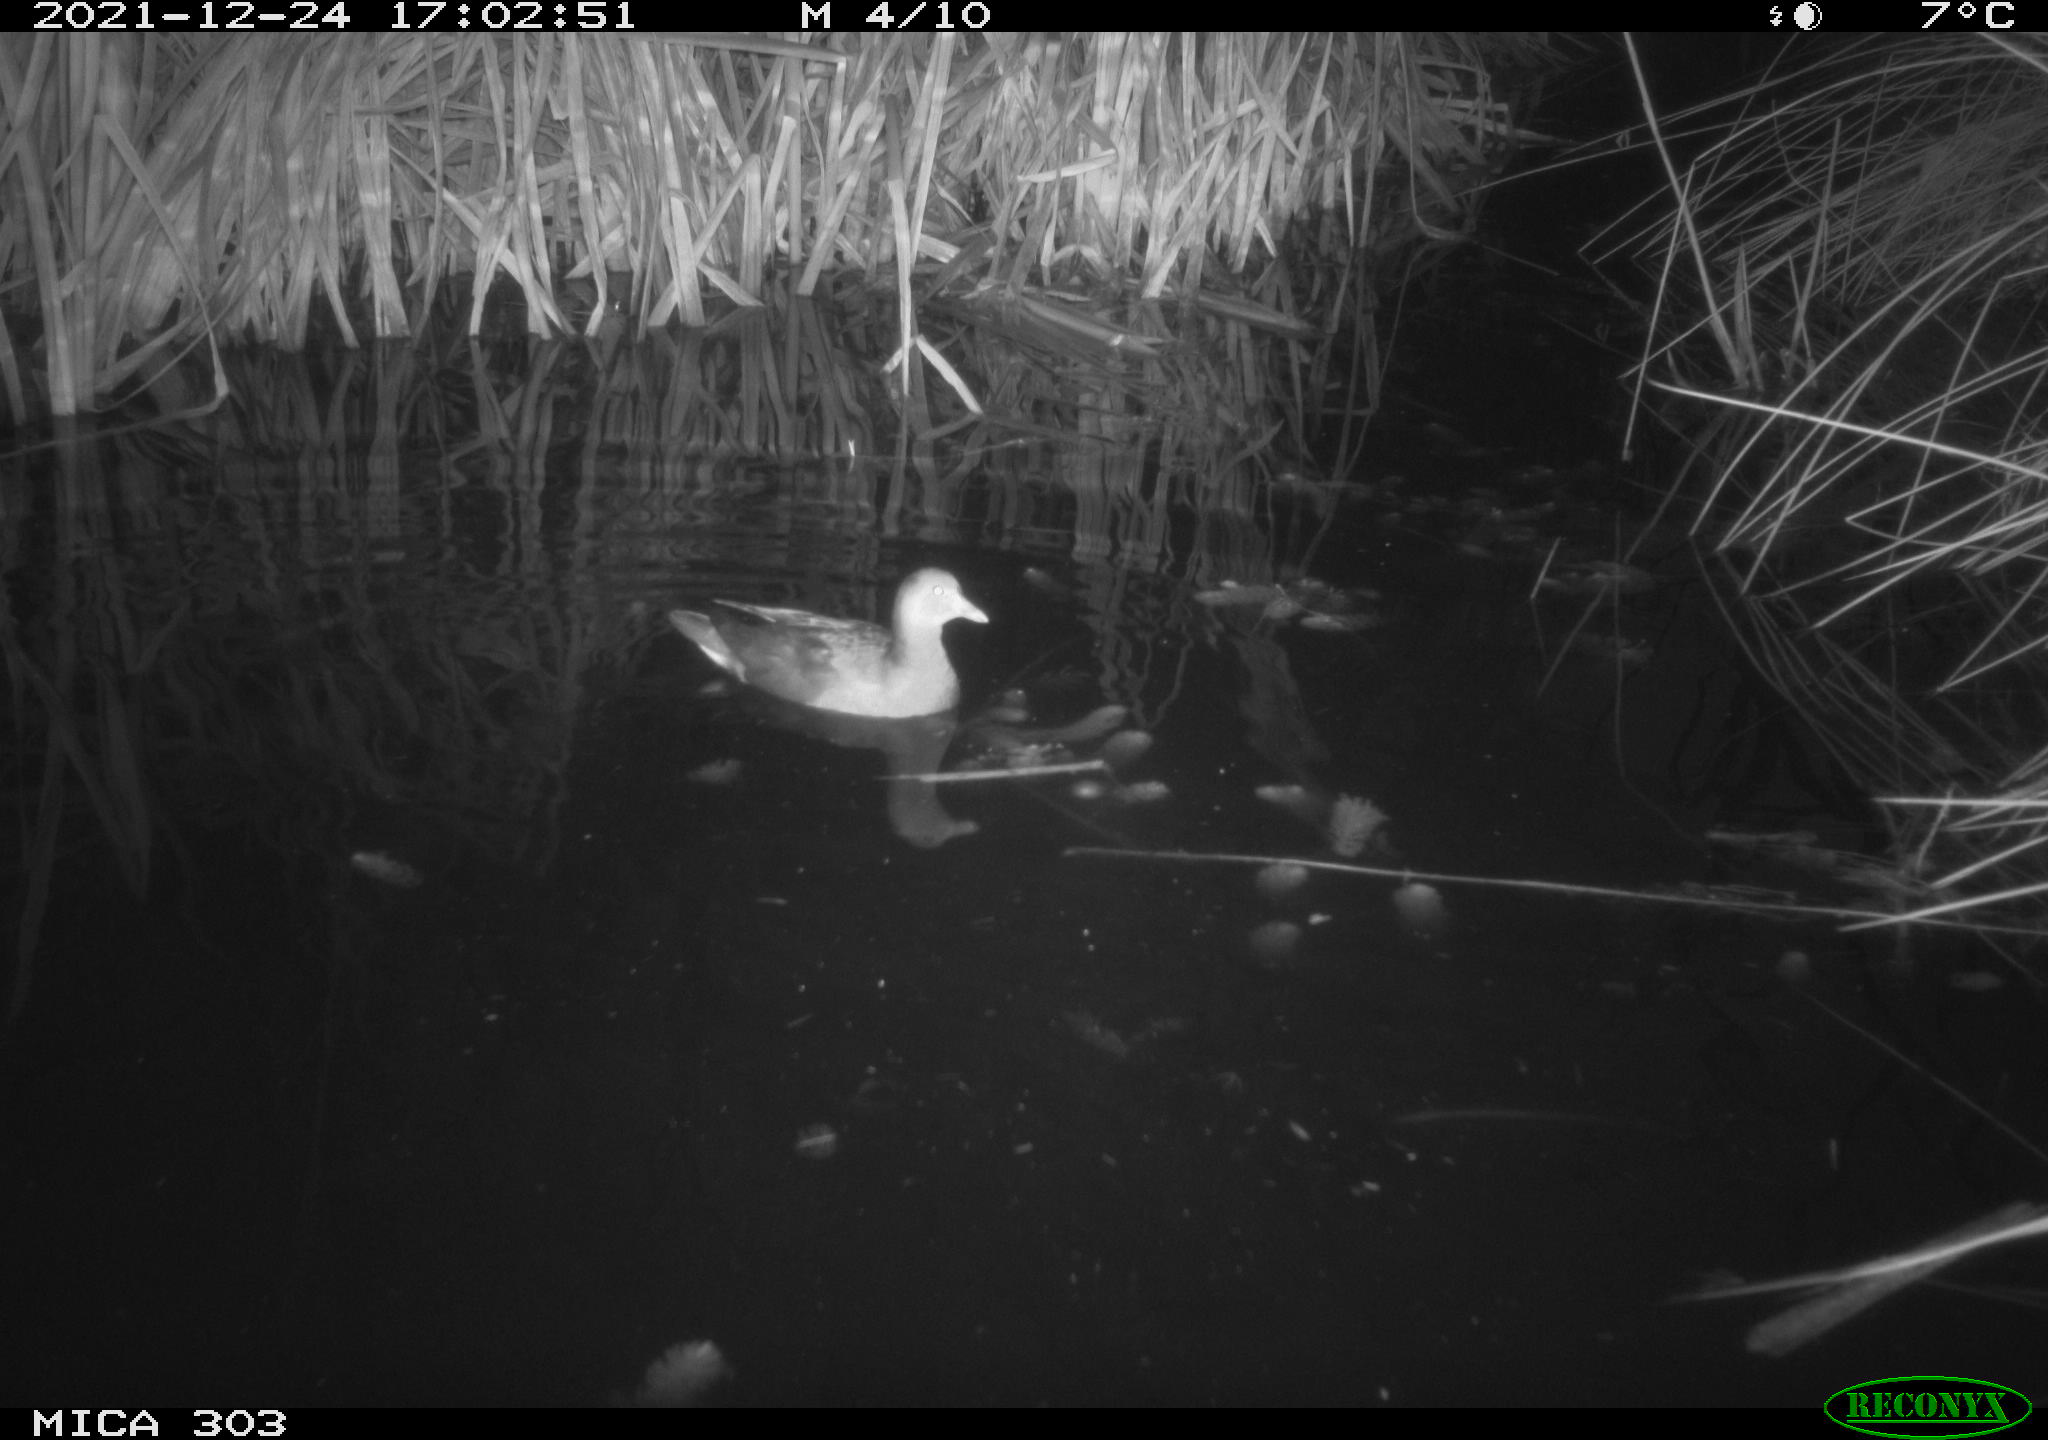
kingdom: Animalia
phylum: Chordata
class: Aves
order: Gruiformes
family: Rallidae
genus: Gallinula
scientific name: Gallinula chloropus
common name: Common moorhen
